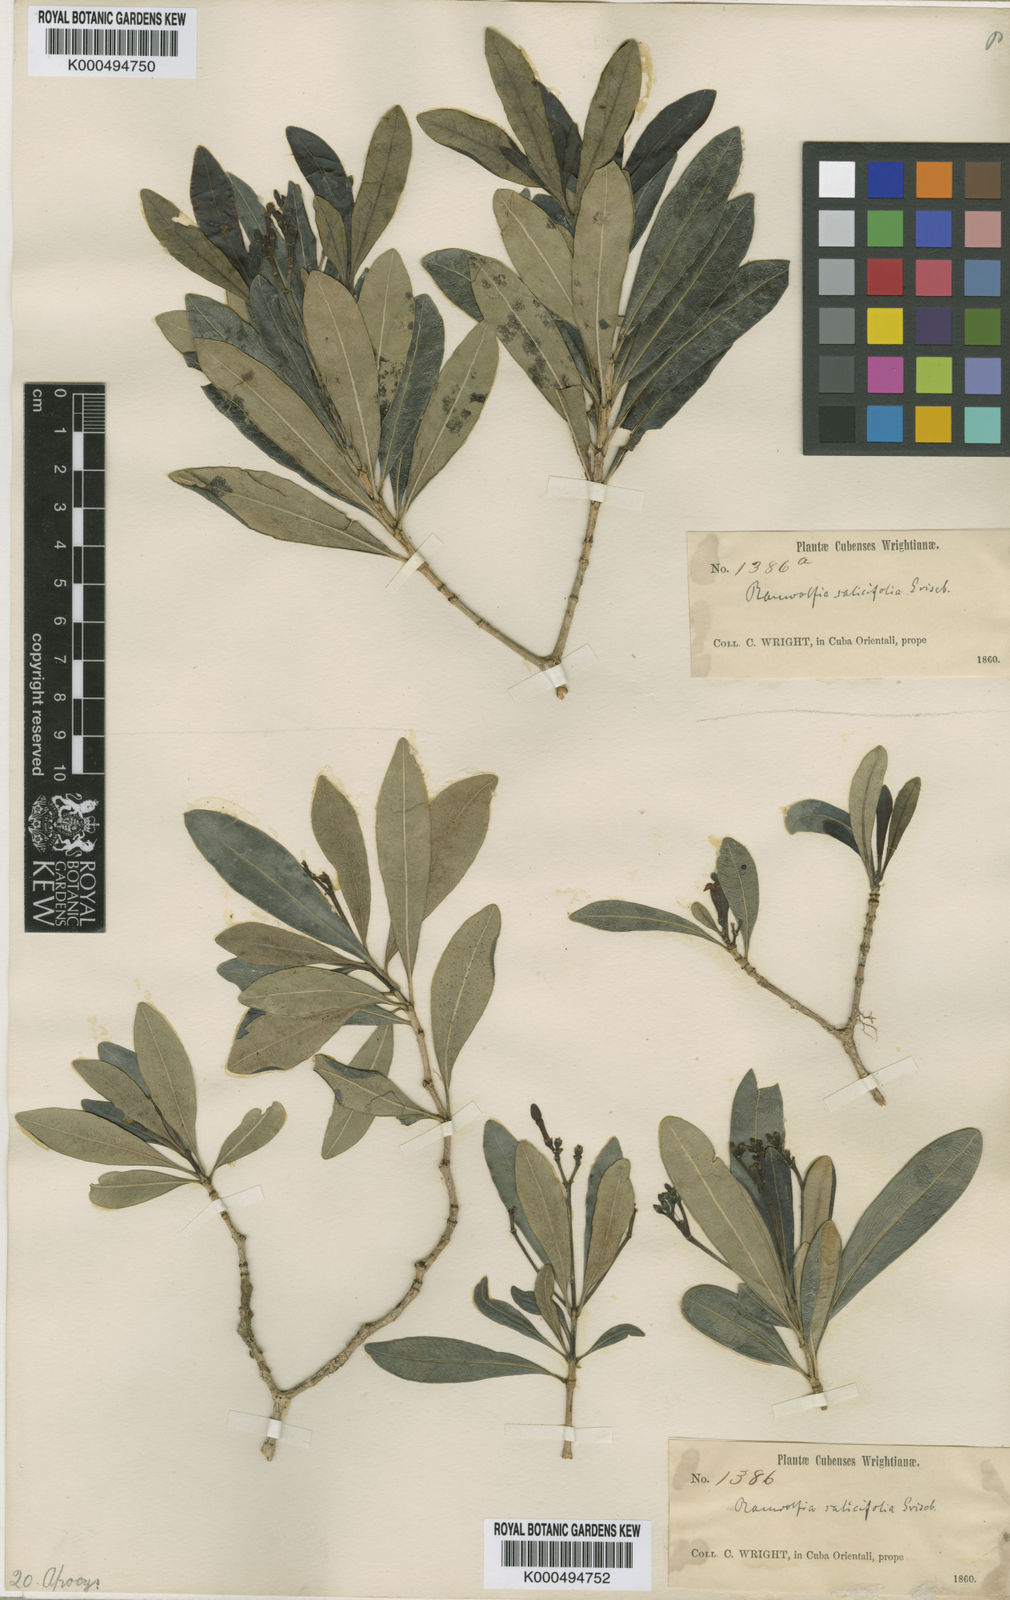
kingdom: Plantae
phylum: Tracheophyta
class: Magnoliopsida
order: Gentianales
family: Apocynaceae
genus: Rauvolfia
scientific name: Rauvolfia salicifolia
